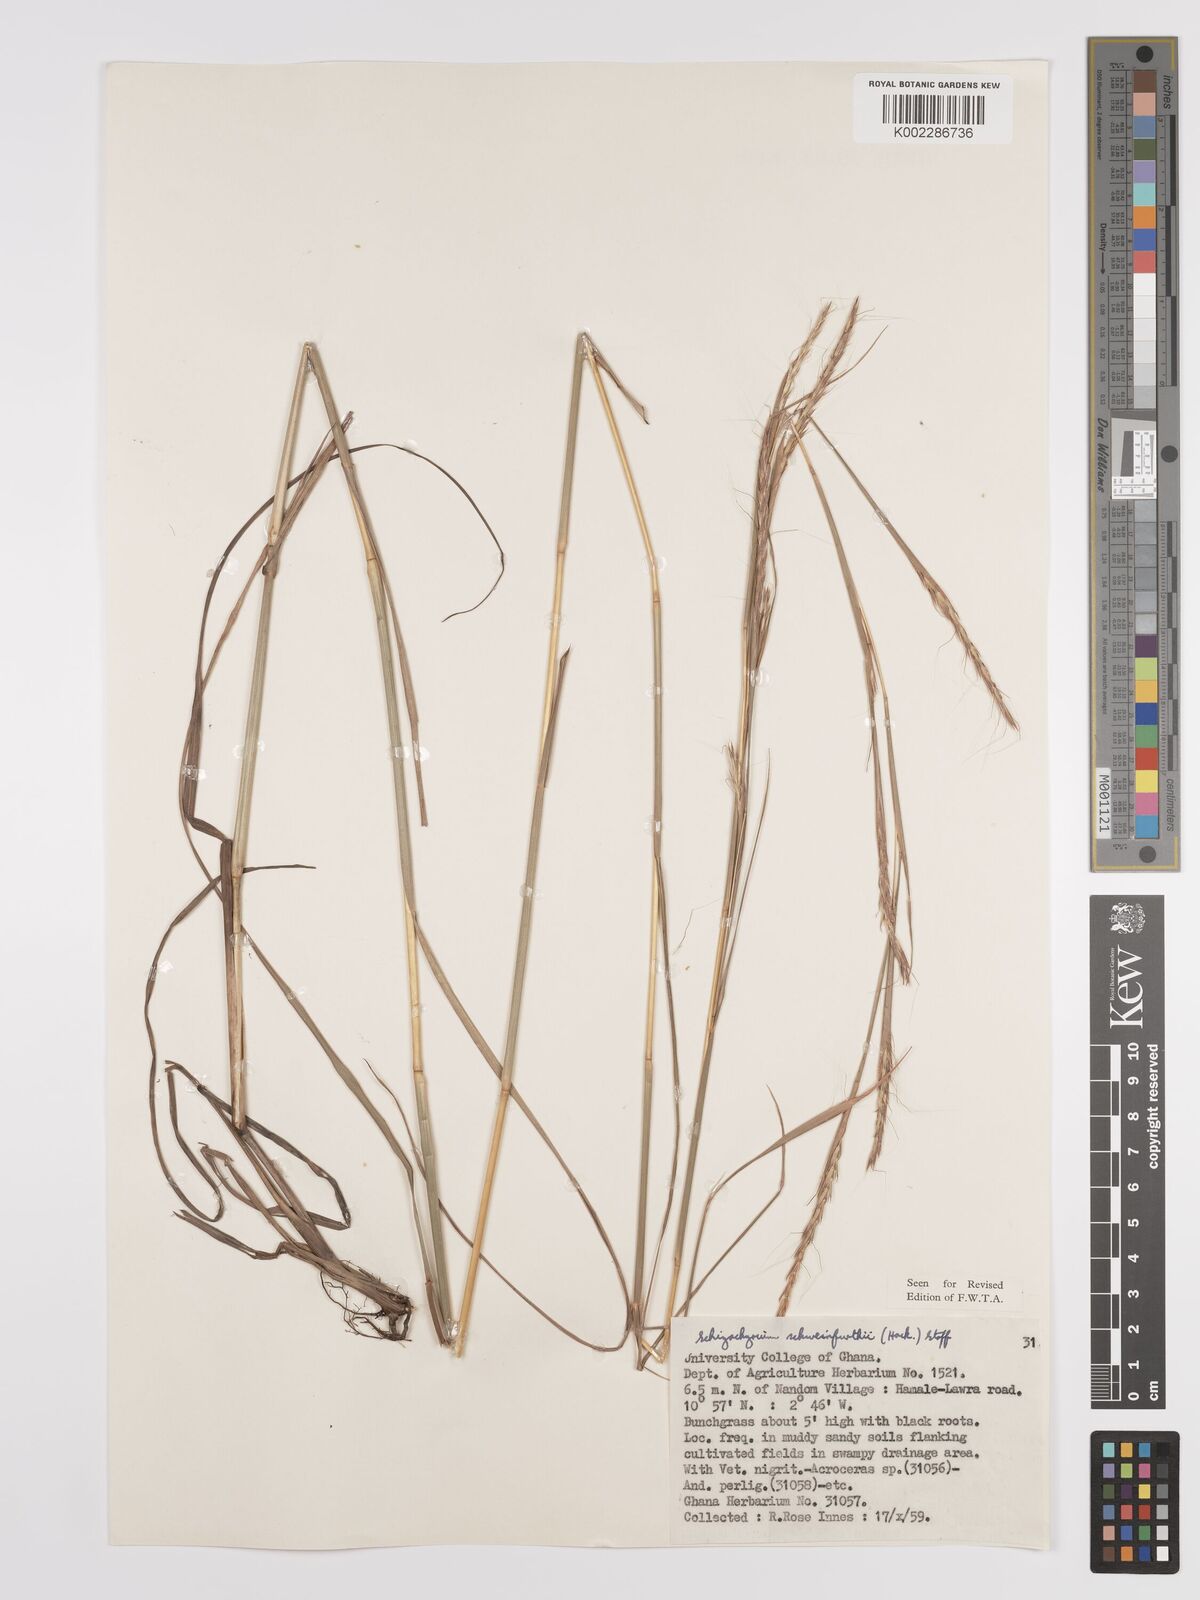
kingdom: Plantae
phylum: Tracheophyta
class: Liliopsida
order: Poales
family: Poaceae
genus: Andropogon
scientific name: Andropogon schweinfurthii
